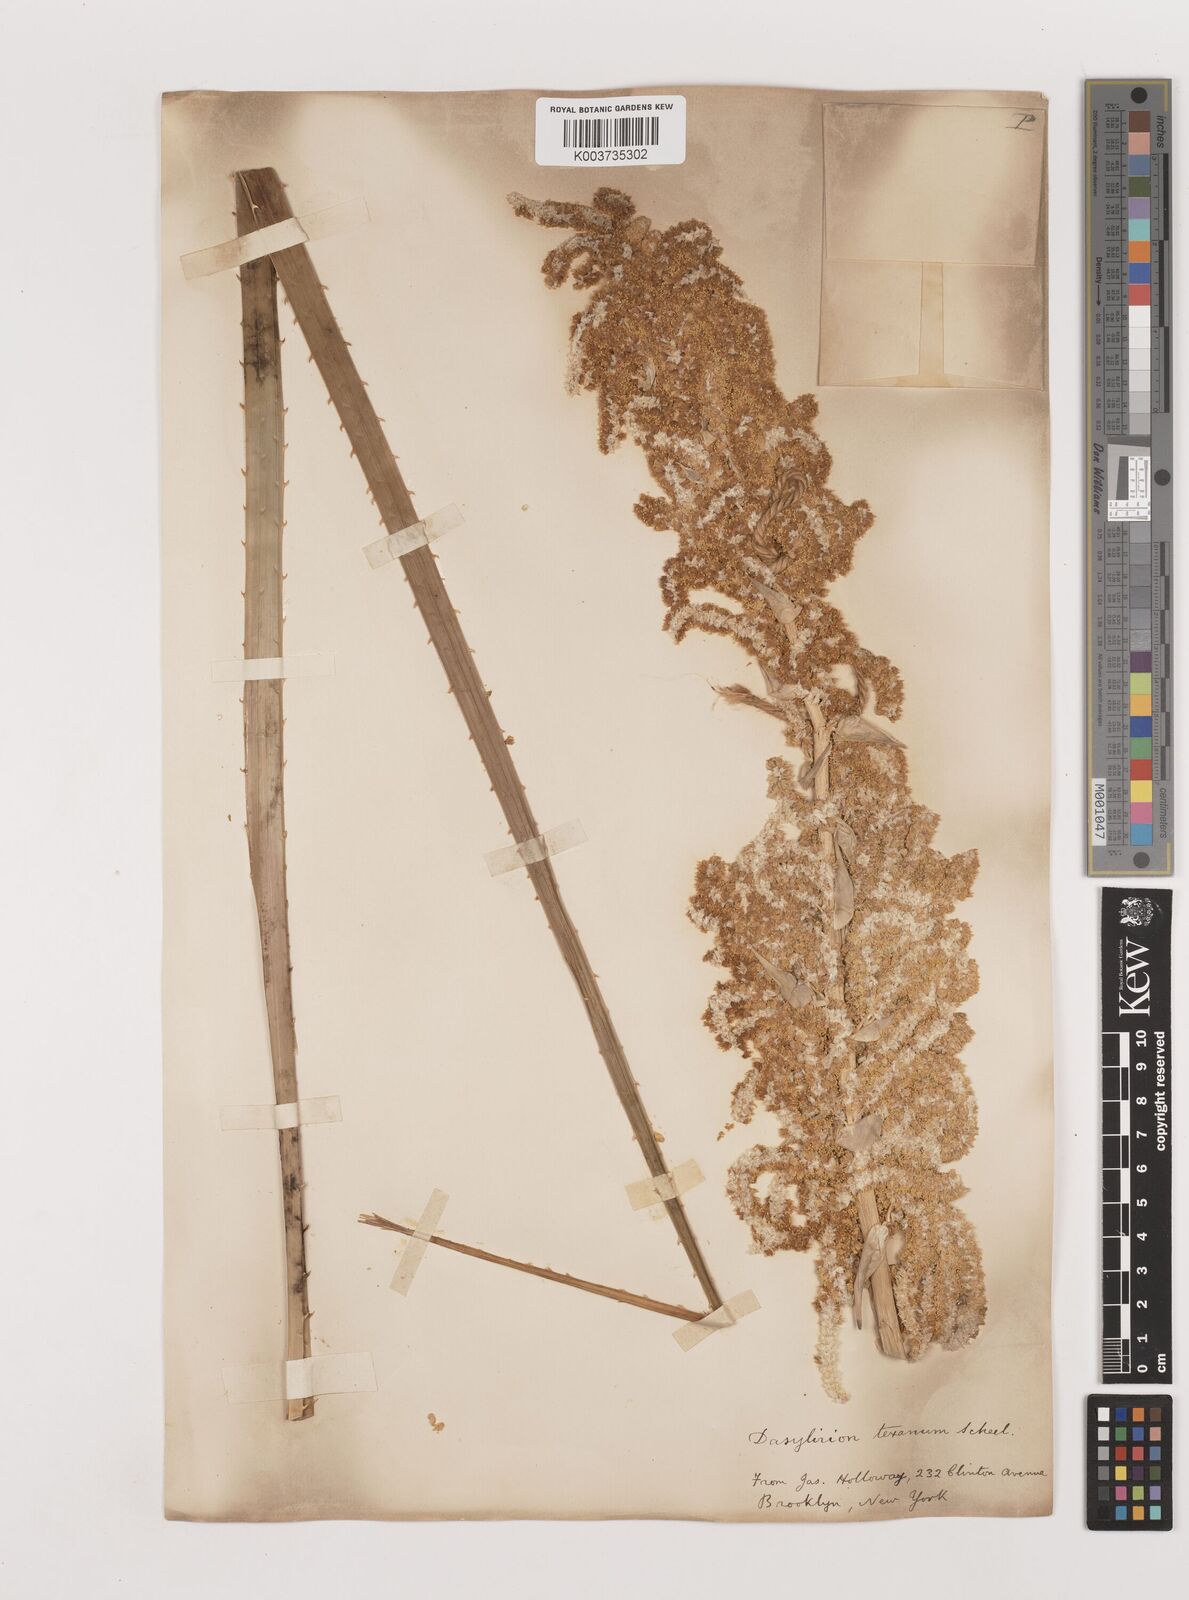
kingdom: Plantae
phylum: Tracheophyta
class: Liliopsida
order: Asparagales
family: Asparagaceae
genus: Dasylirion
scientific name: Dasylirion texanum
